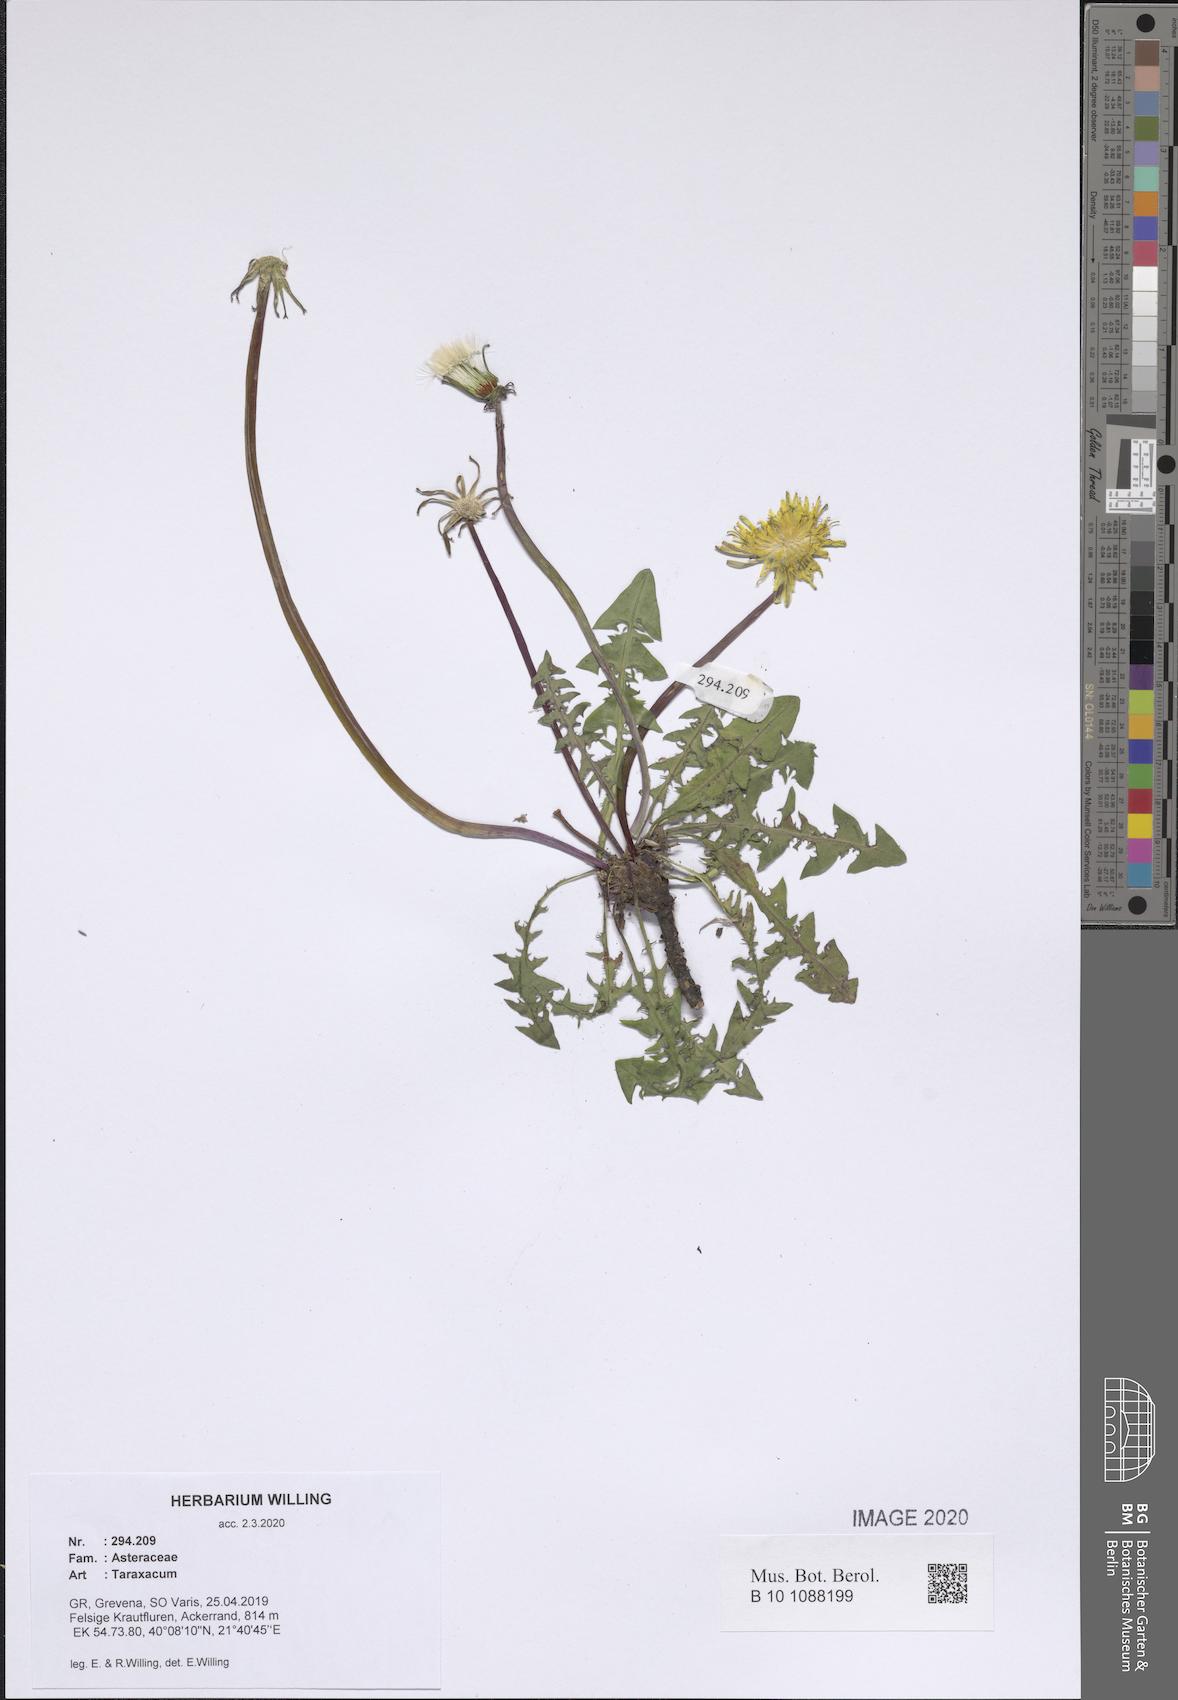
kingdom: Plantae
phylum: Tracheophyta
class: Magnoliopsida
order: Asterales
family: Asteraceae
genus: Taraxacum
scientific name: Taraxacum
